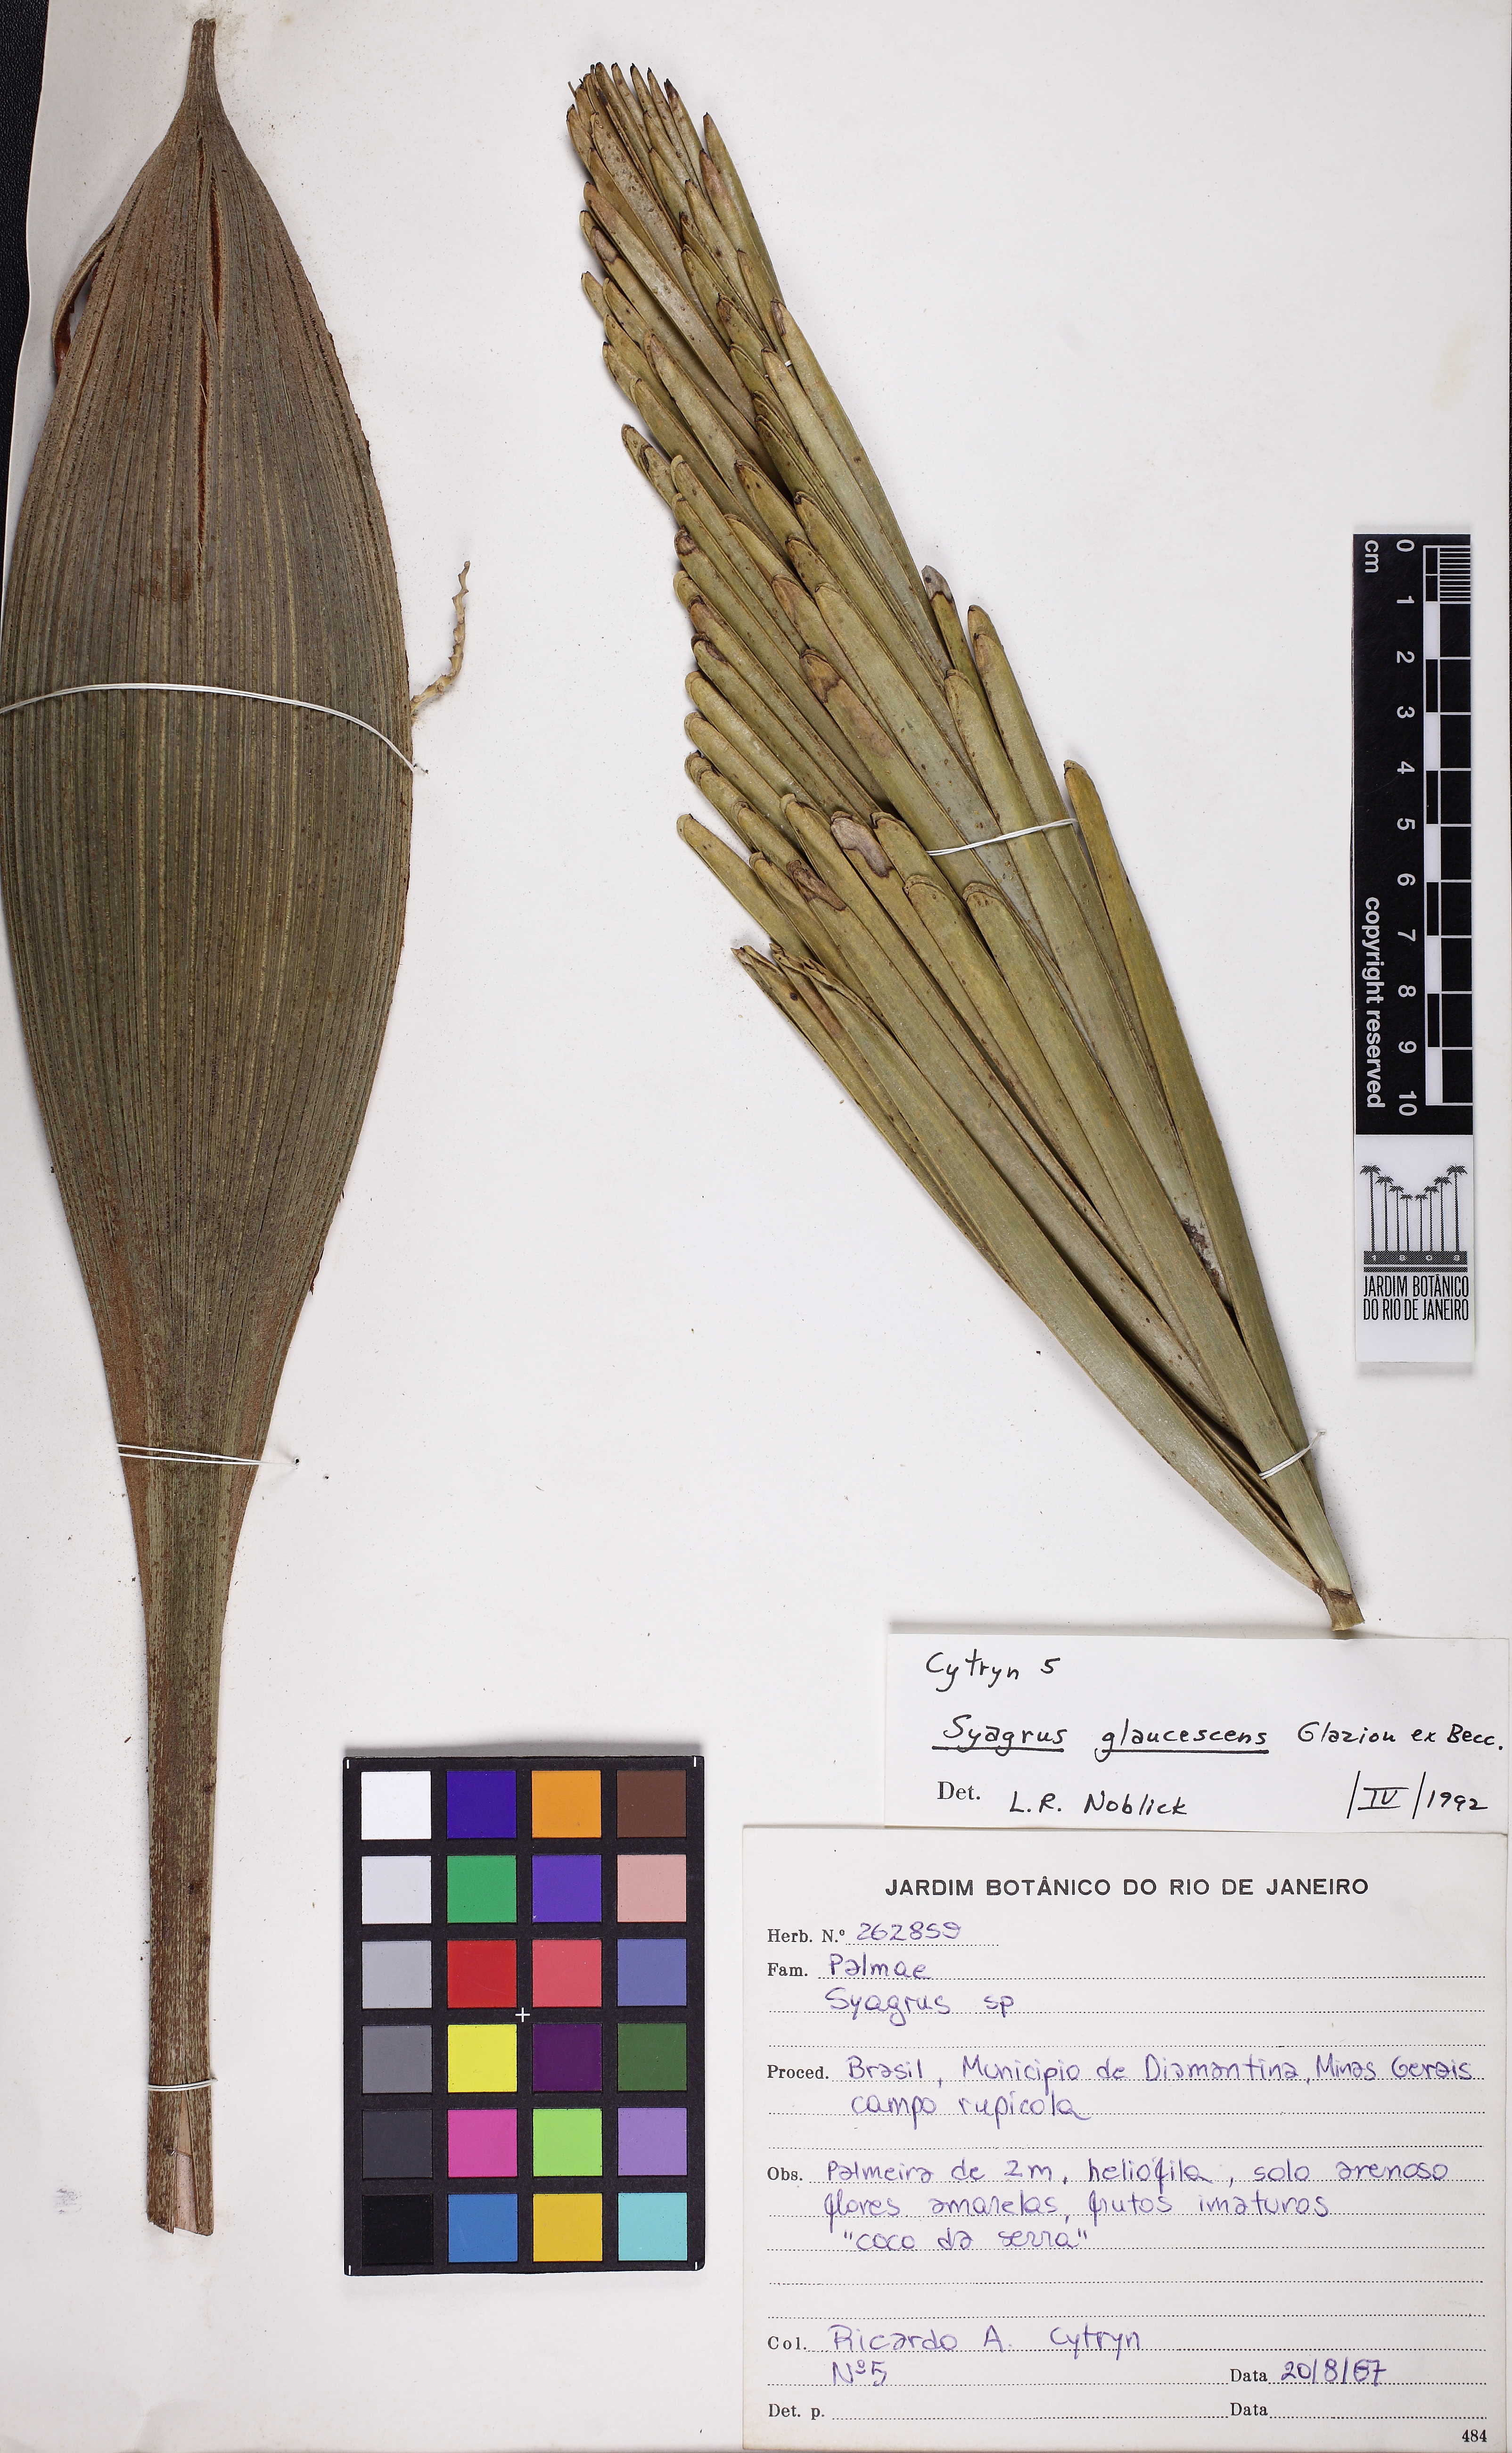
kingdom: Plantae
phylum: Tracheophyta
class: Liliopsida
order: Arecales
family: Arecaceae
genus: Syagrus
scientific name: Syagrus glaucescens
